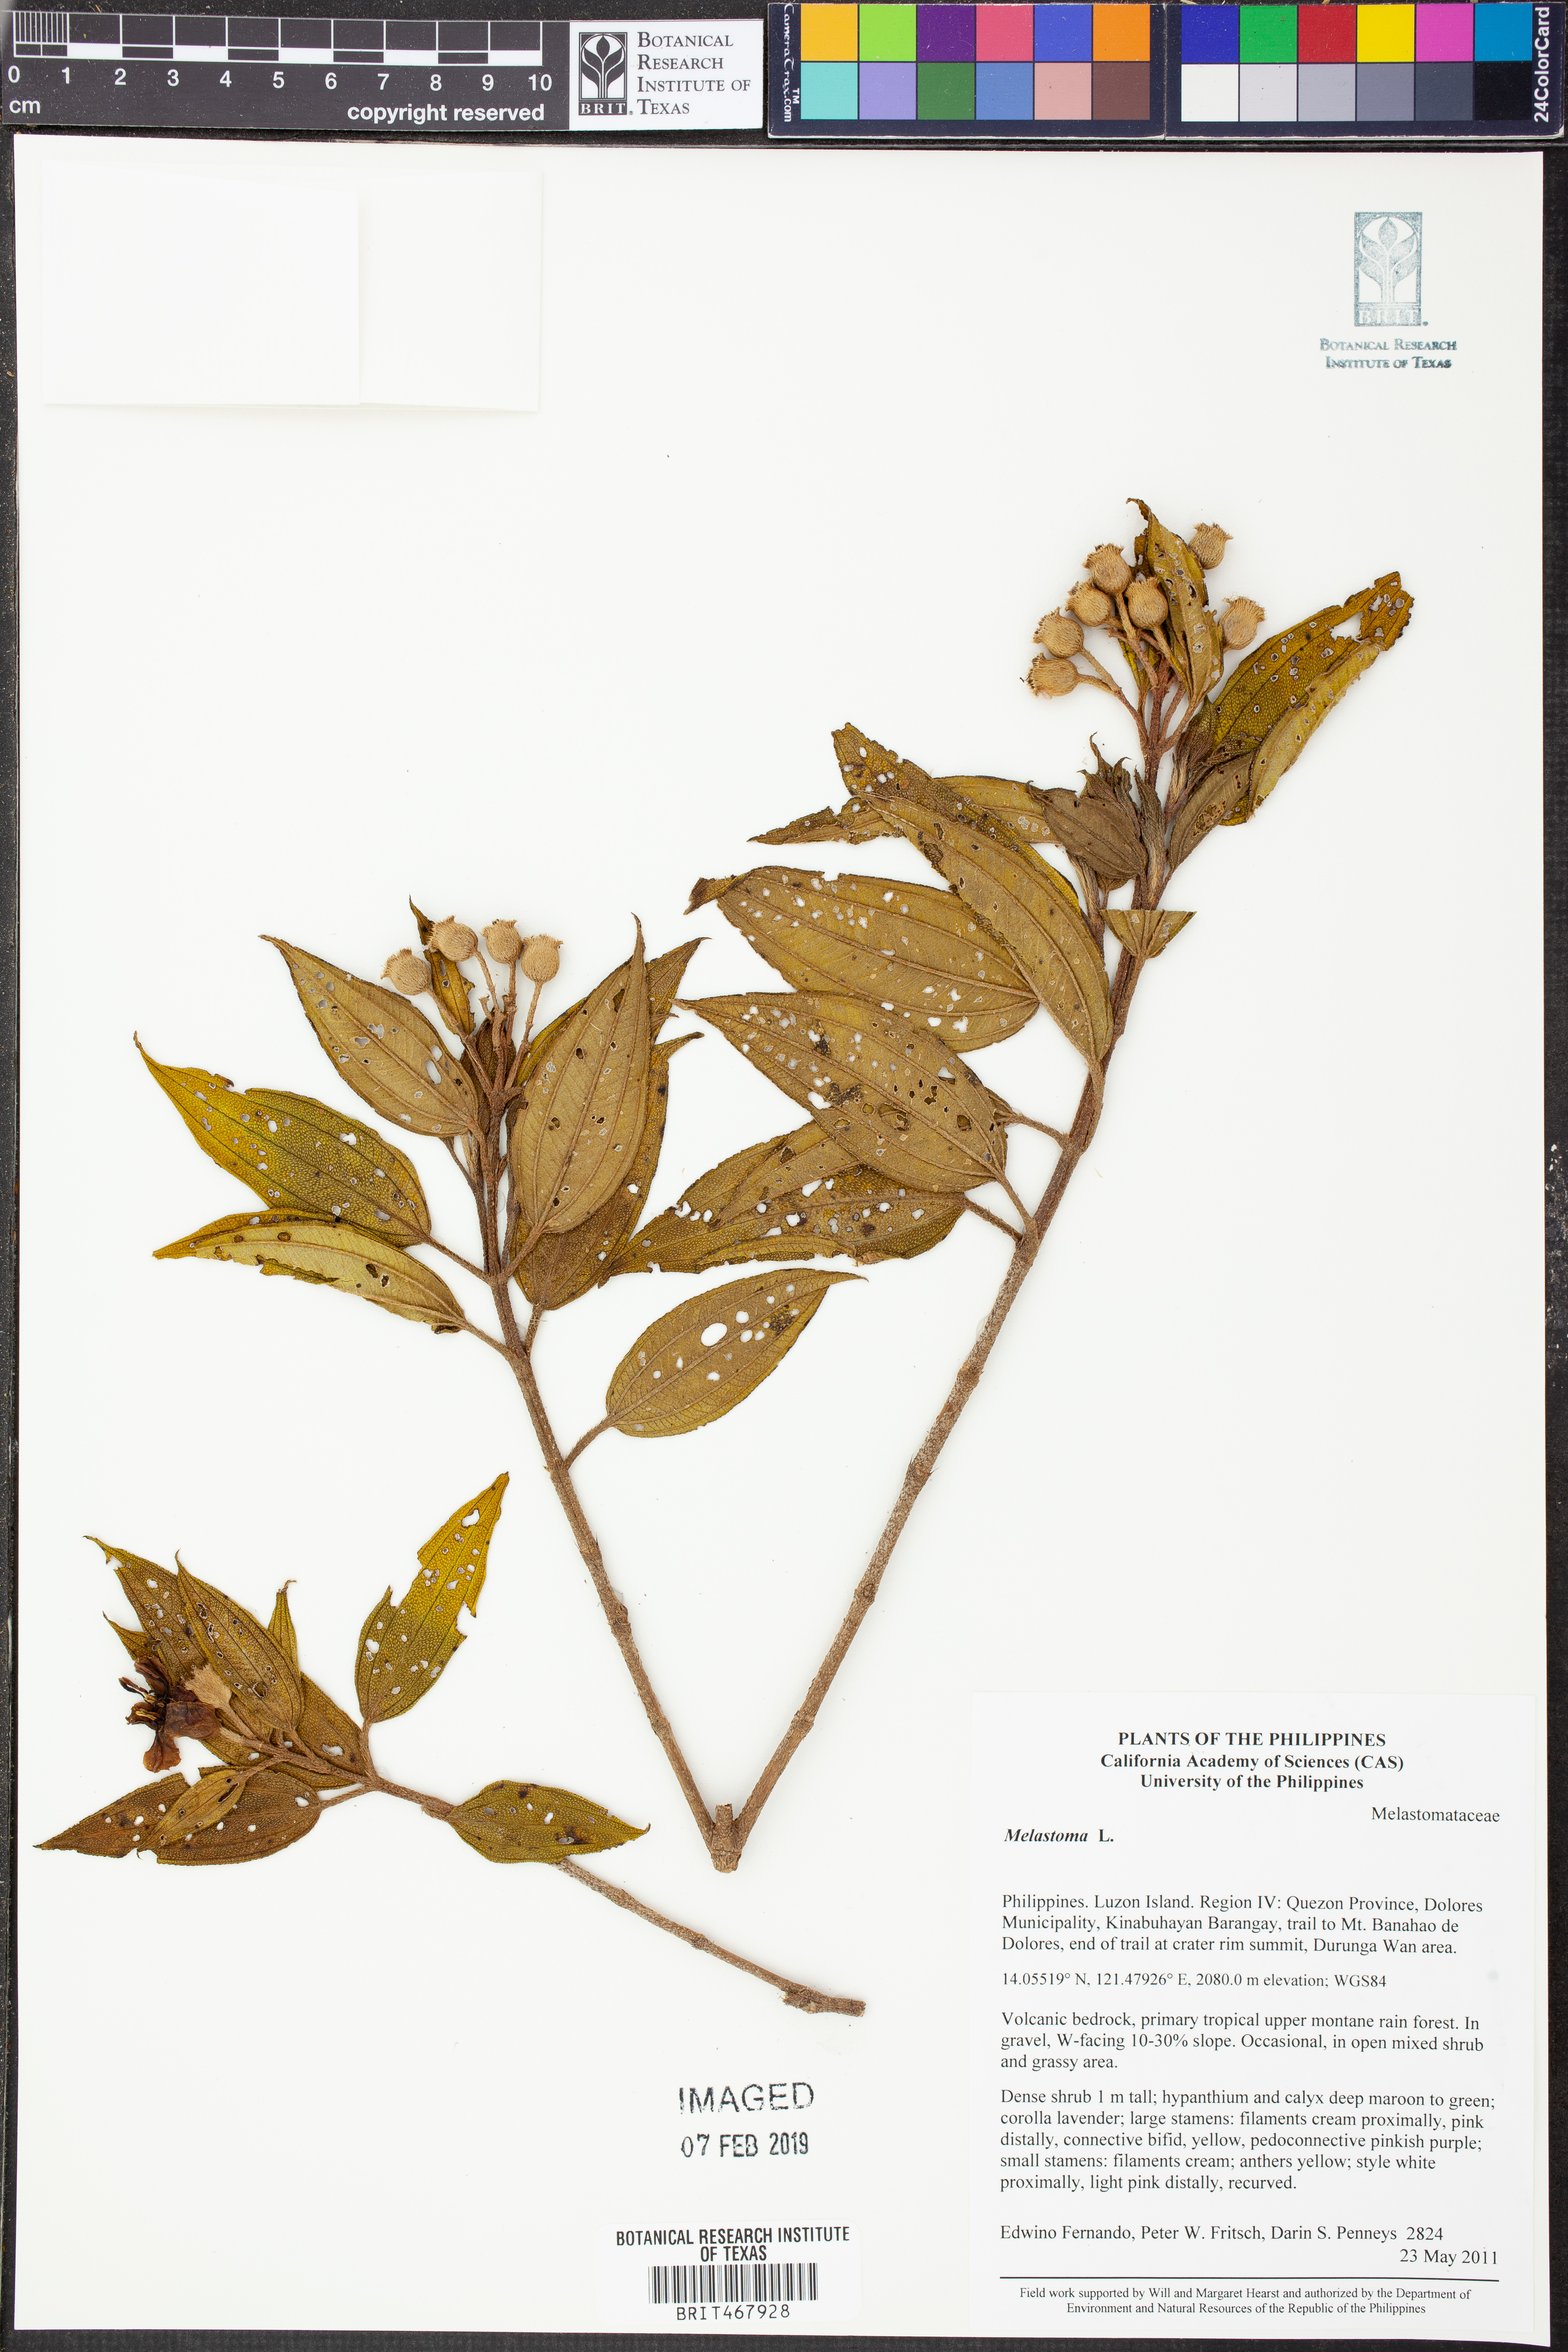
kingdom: Plantae
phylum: Tracheophyta
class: Magnoliopsida
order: Myrtales
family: Melastomataceae
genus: Melastoma
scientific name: Melastoma
